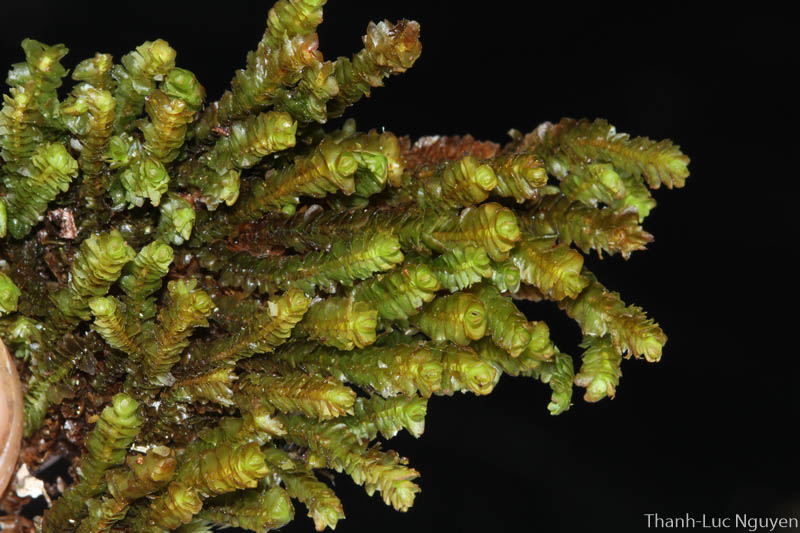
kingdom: Plantae
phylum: Marchantiophyta
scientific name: Marchantiophyta
